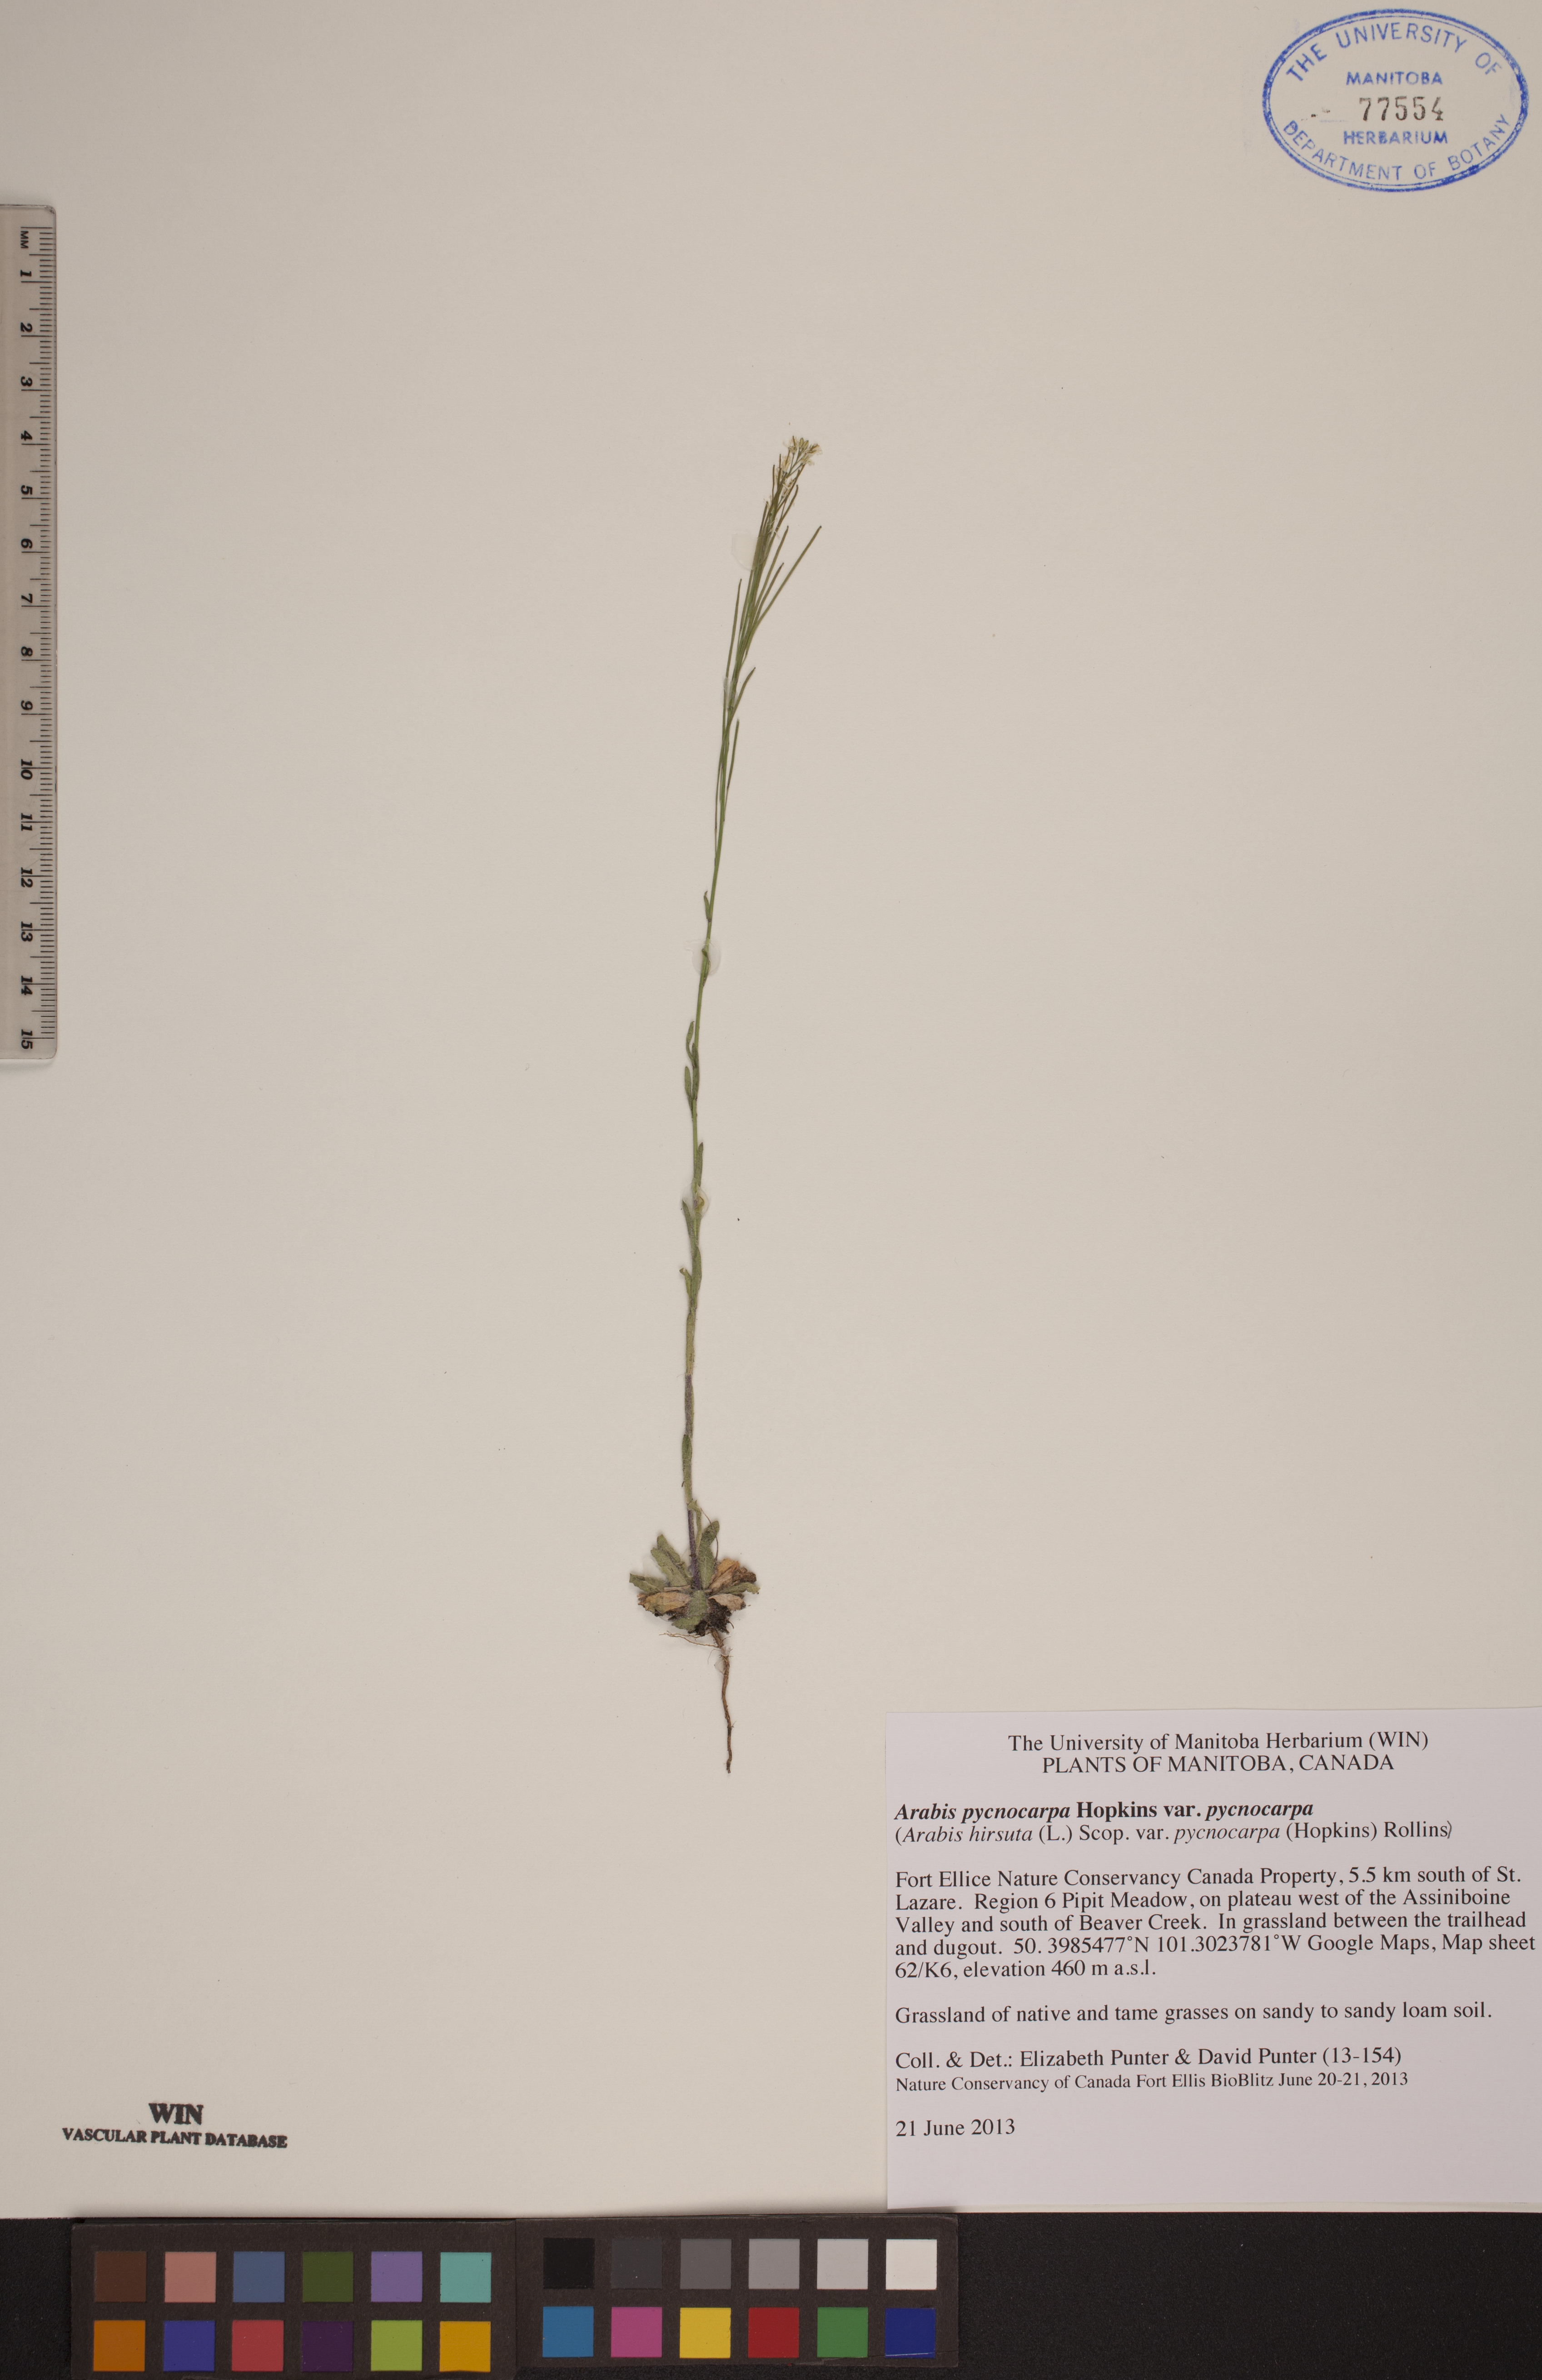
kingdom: Plantae
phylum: Tracheophyta
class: Magnoliopsida
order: Brassicales
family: Brassicaceae
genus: Arabis
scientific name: Arabis pycnocarpa
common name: Blushing rockcress
